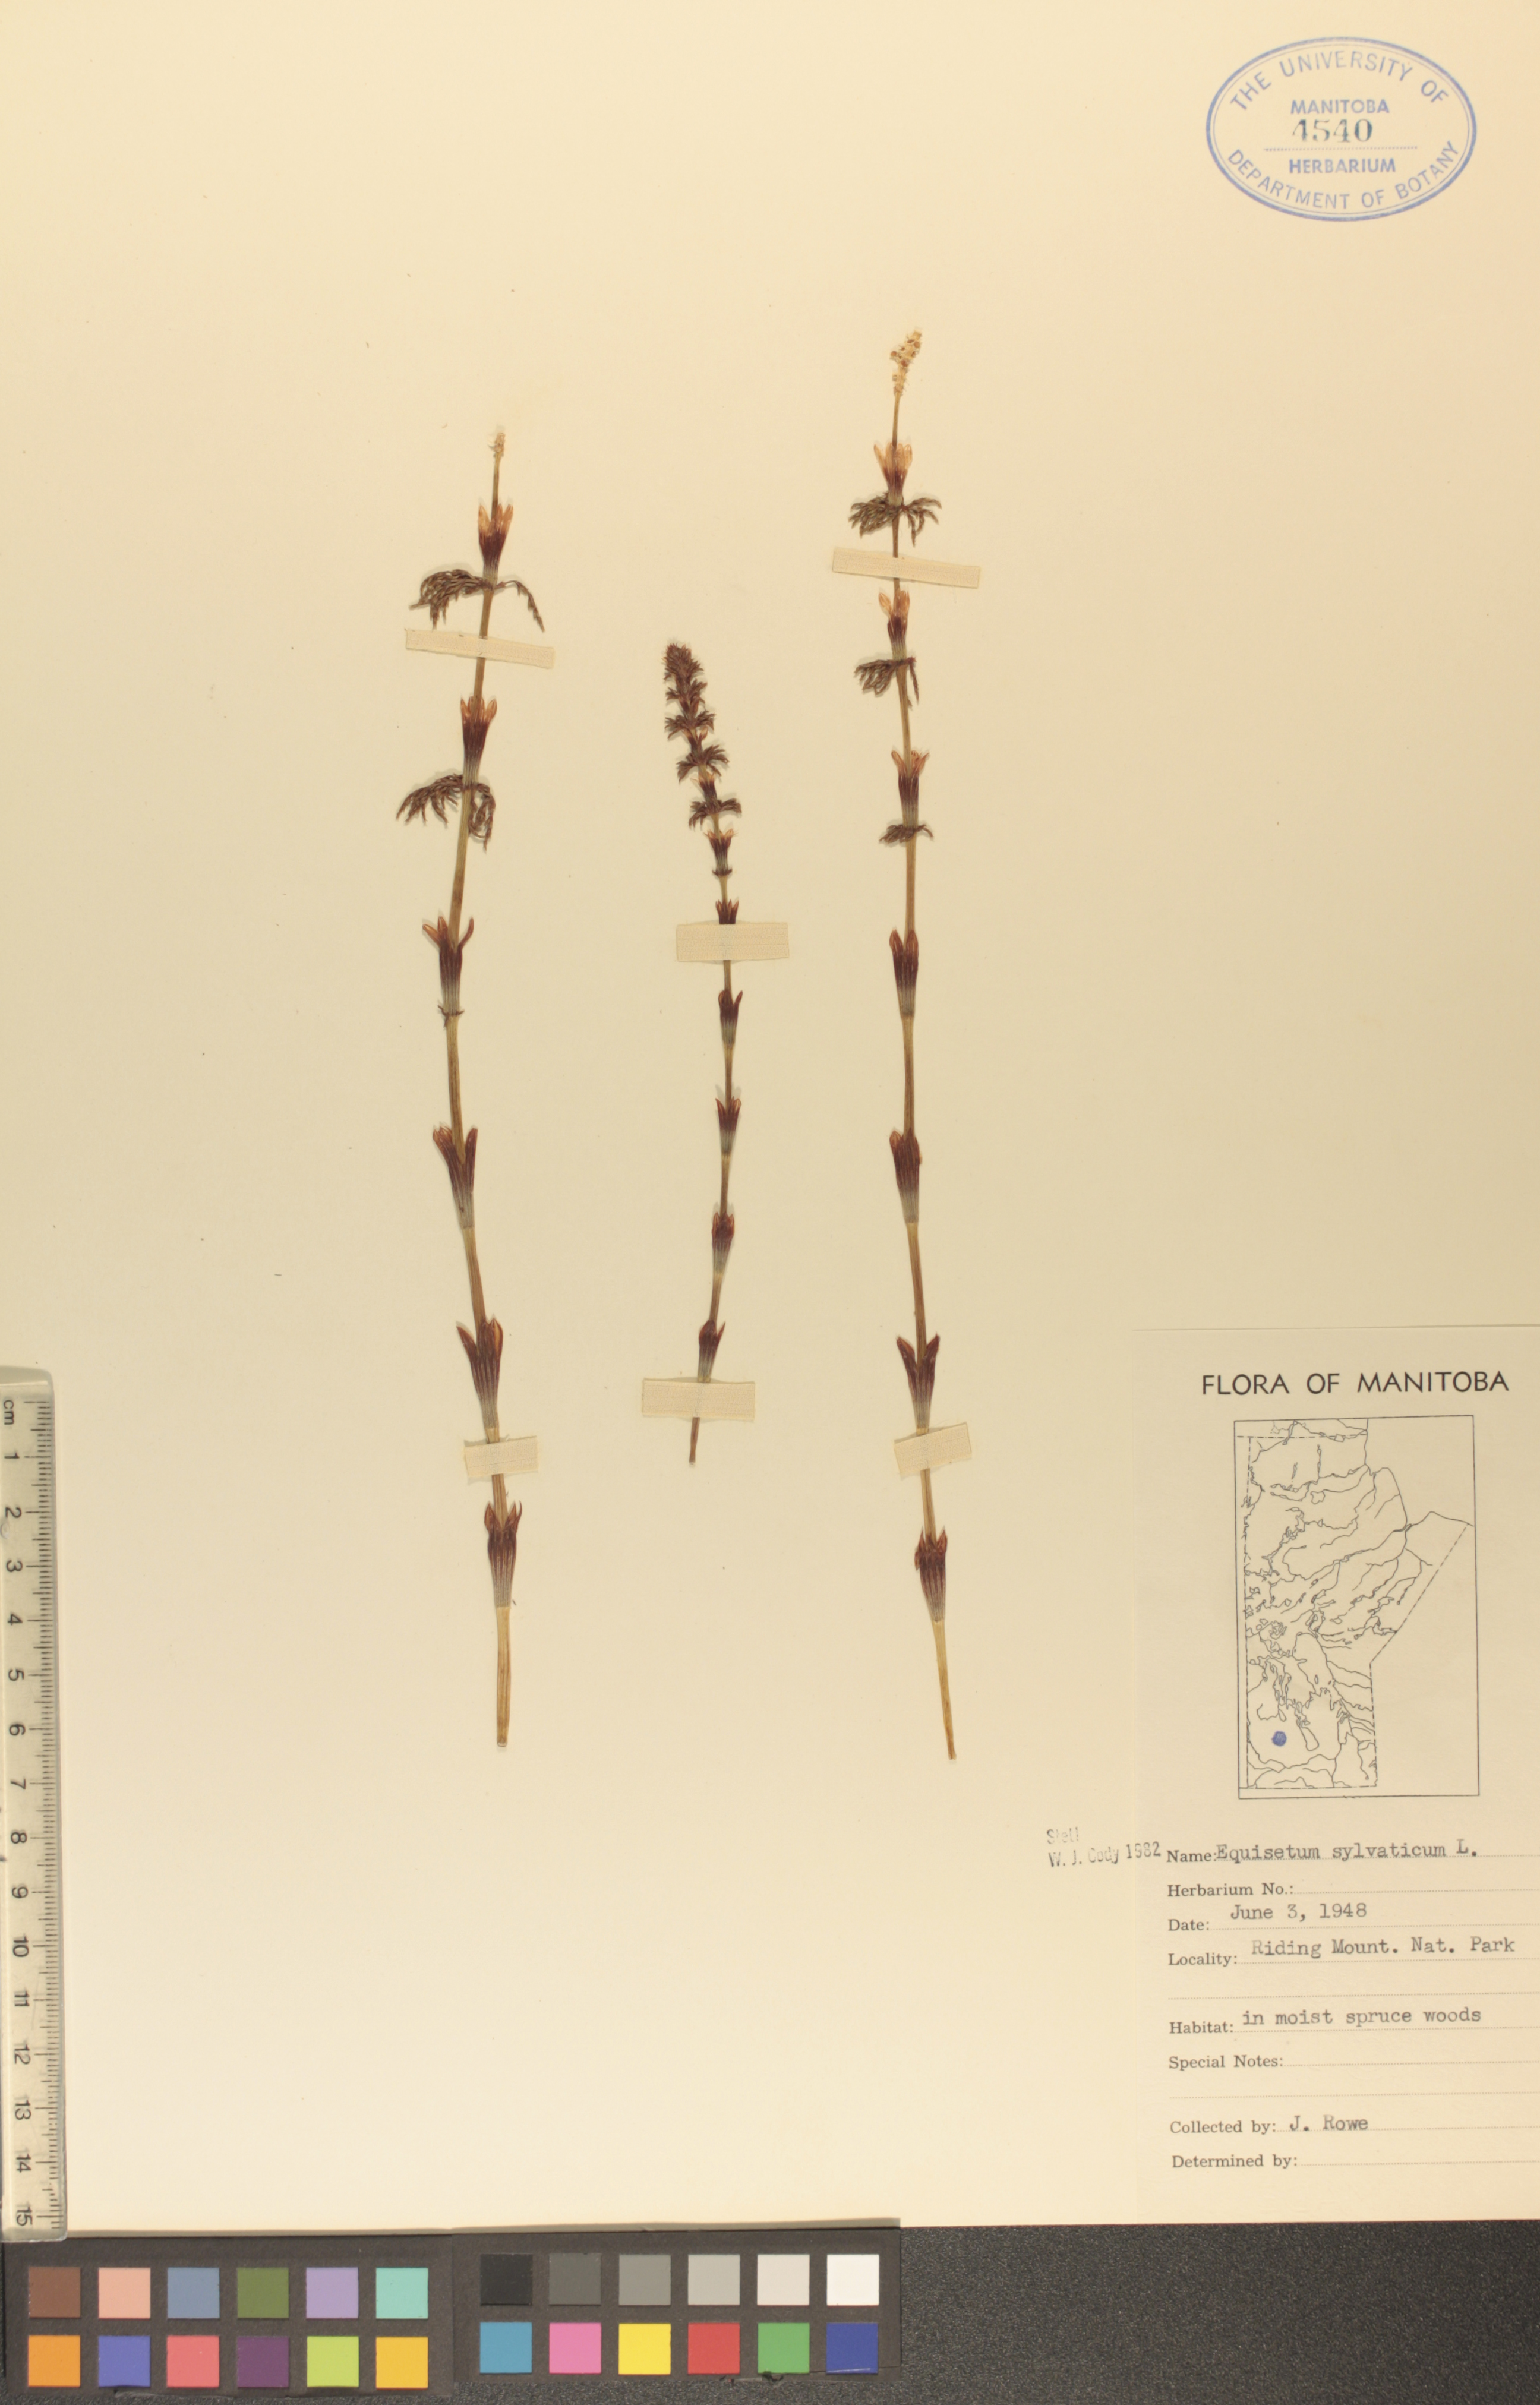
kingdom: Plantae
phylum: Tracheophyta
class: Polypodiopsida
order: Equisetales
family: Equisetaceae
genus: Equisetum
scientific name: Equisetum sylvaticum
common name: Wood horsetail
